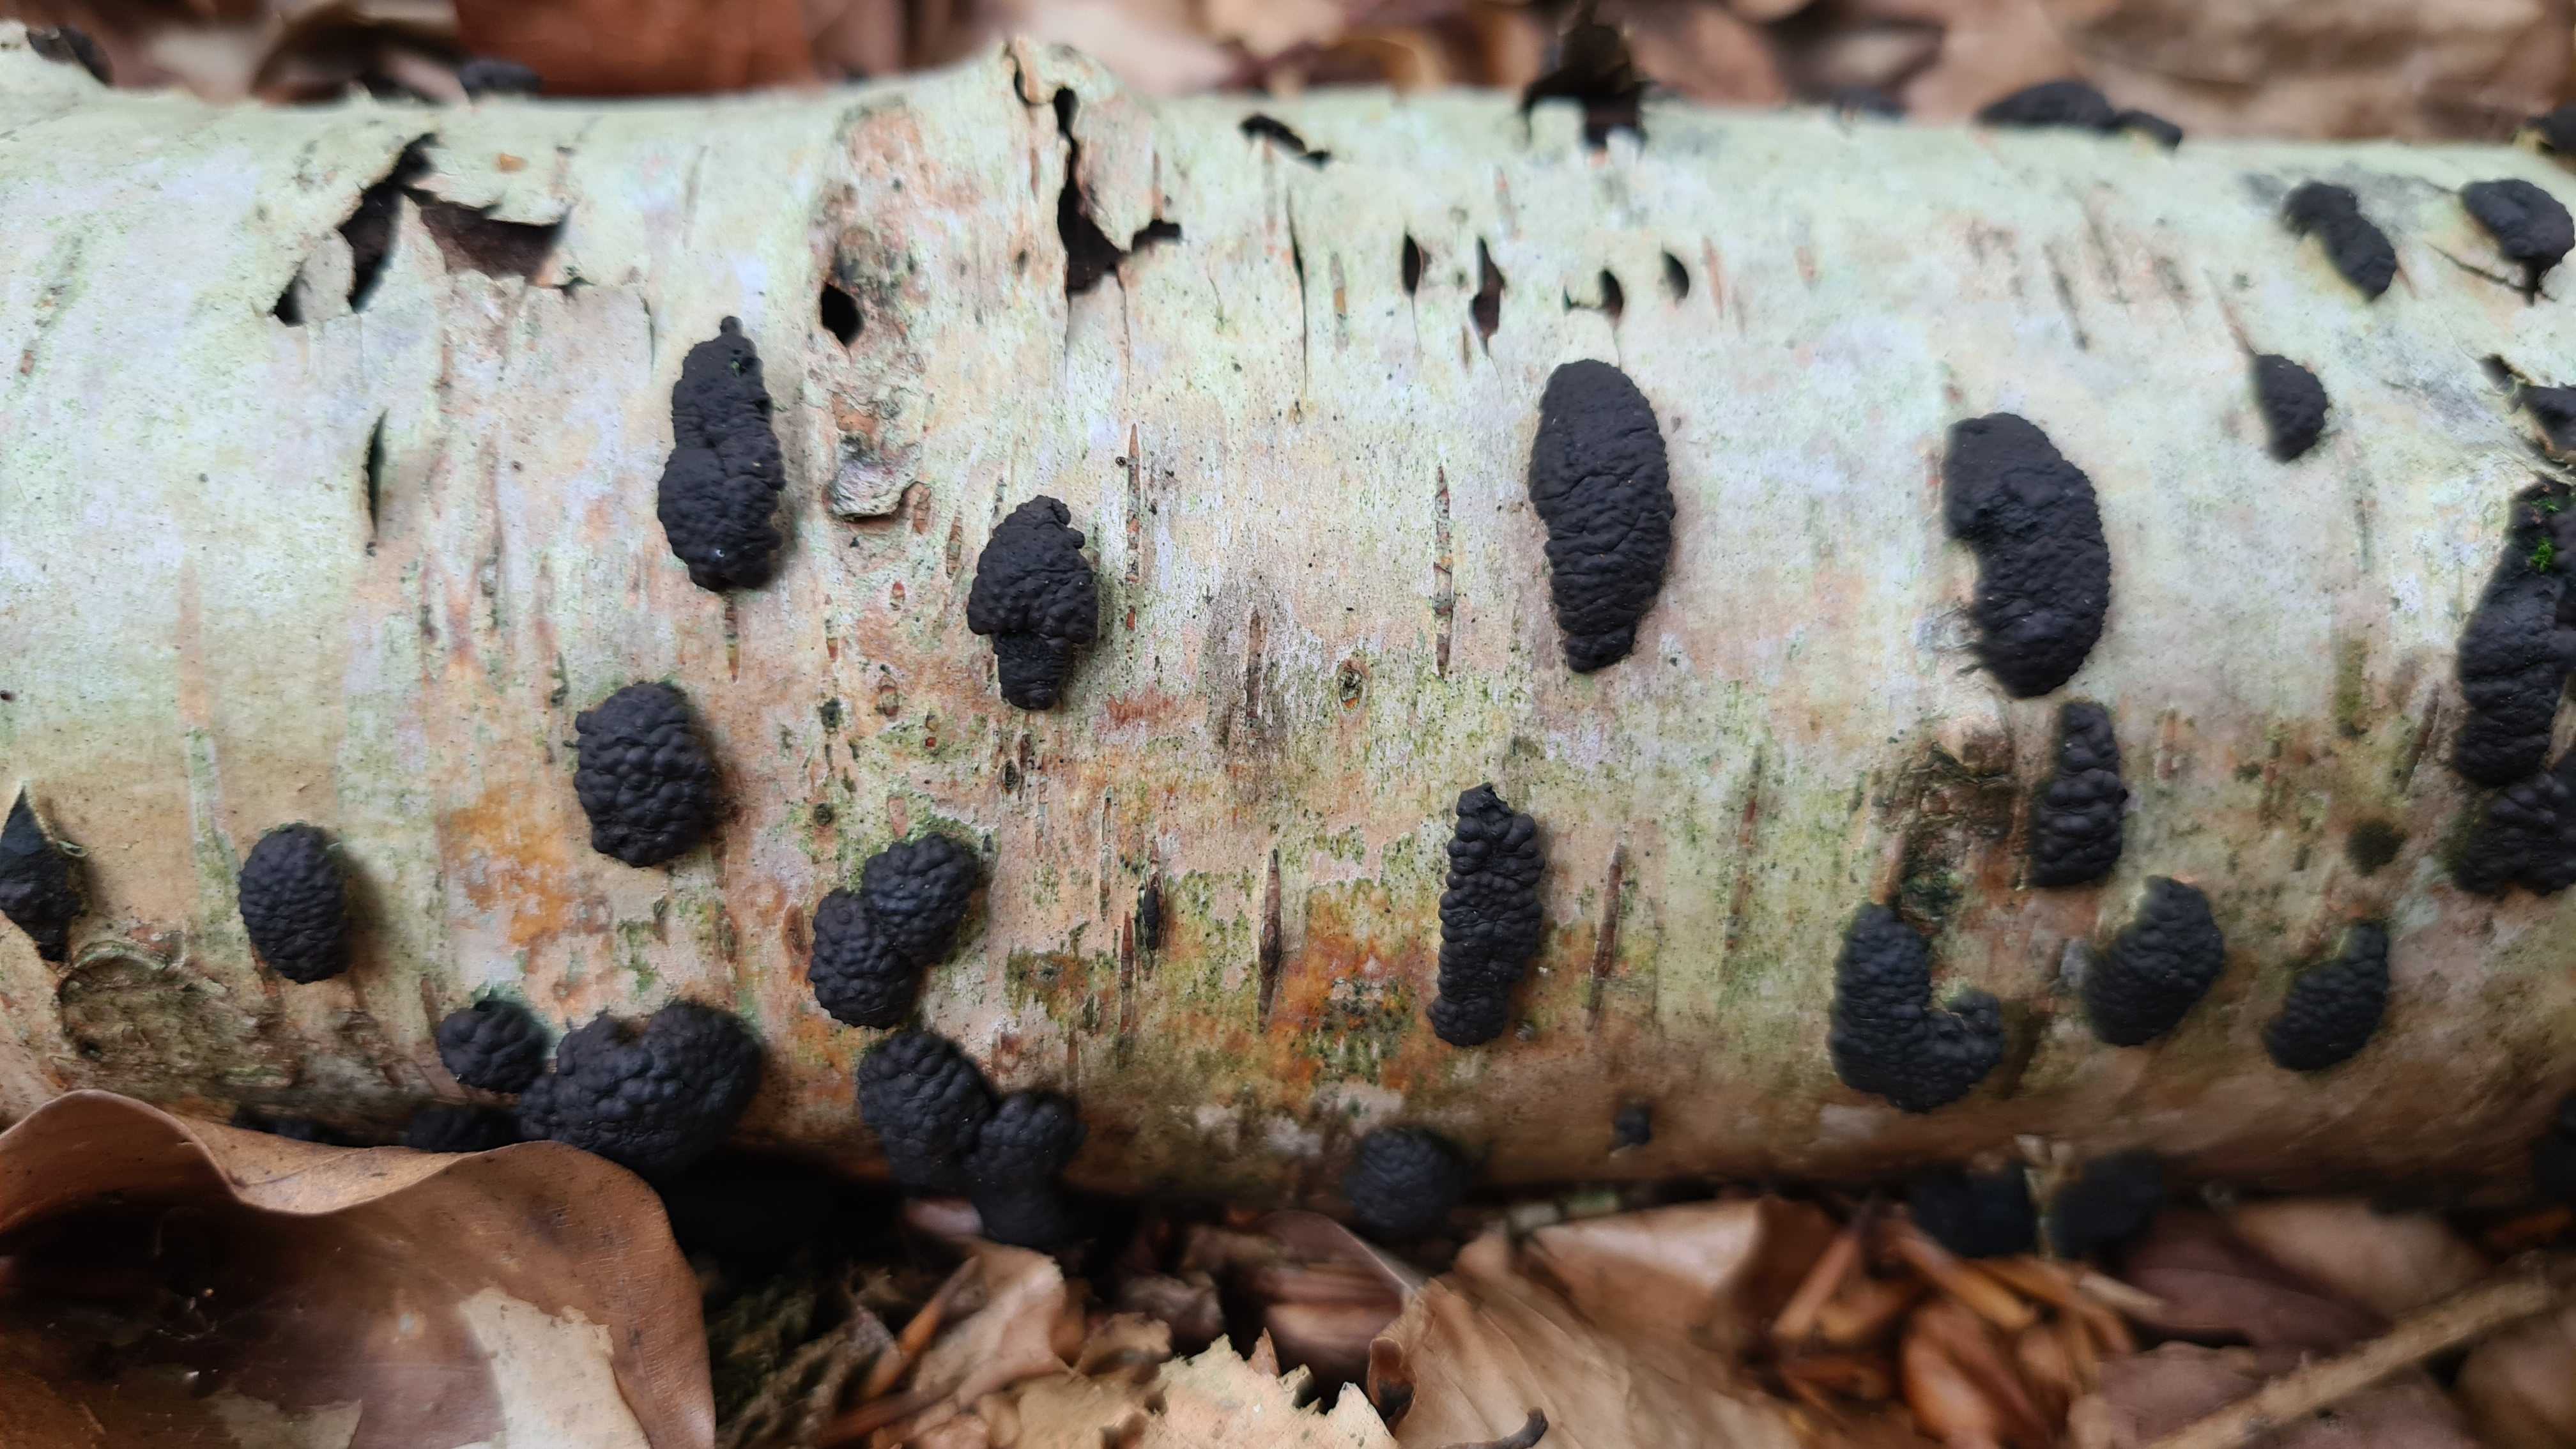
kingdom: Fungi
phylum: Ascomycota
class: Sordariomycetes
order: Xylariales
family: Hypoxylaceae
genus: Jackrogersella
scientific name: Jackrogersella multiformis
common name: foranderlig kulbær
